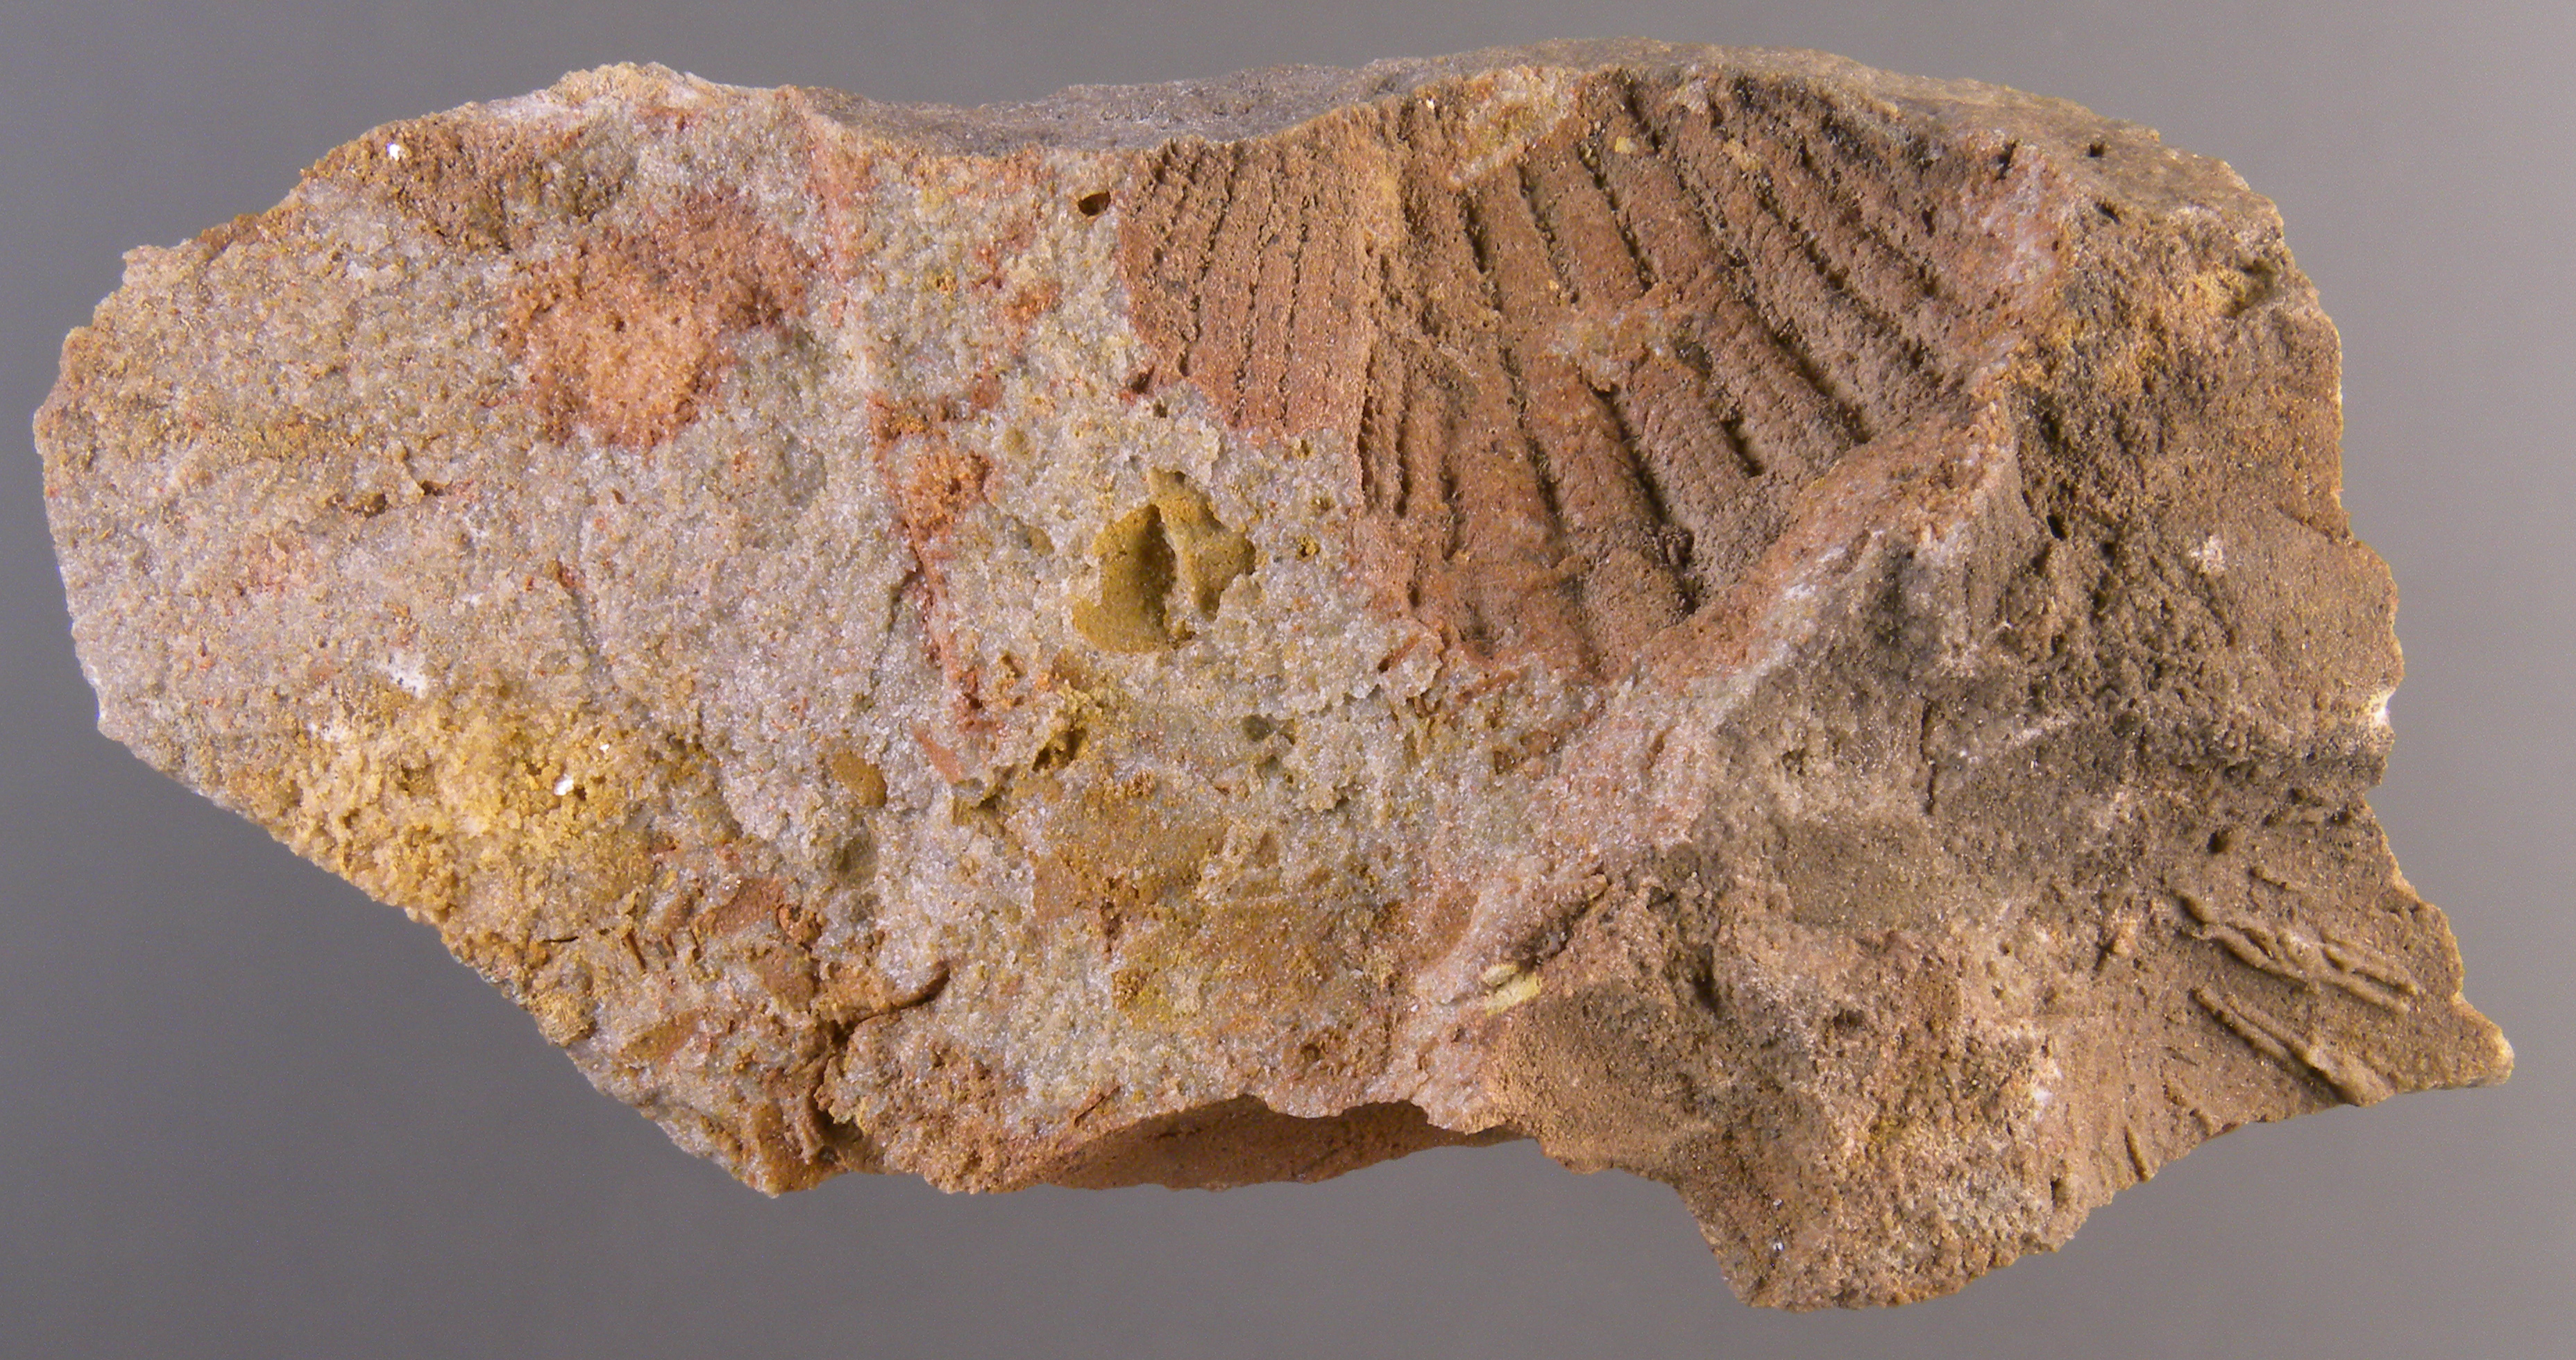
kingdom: Animalia
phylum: Mollusca
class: Bivalvia
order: Ostreida
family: Pterineidae
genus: Ptychopteria
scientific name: Ptychopteria
